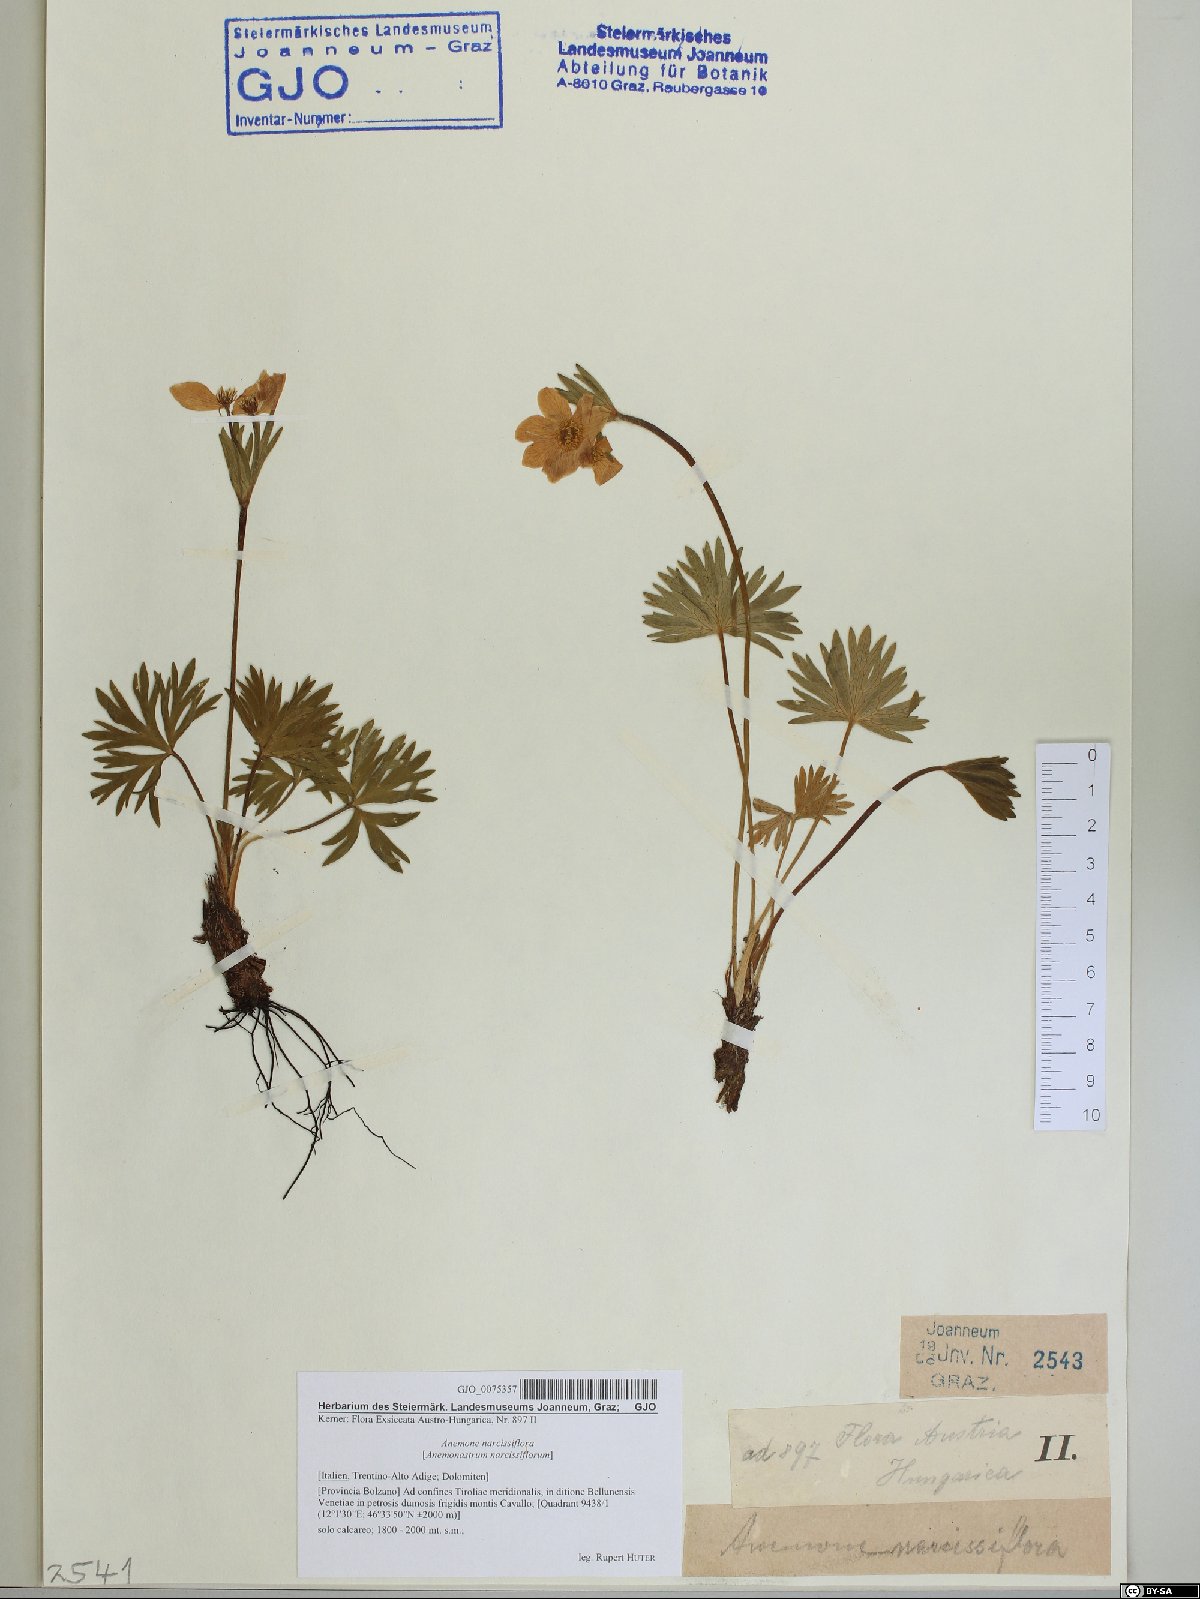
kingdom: Plantae
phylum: Tracheophyta
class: Magnoliopsida
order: Ranunculales
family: Ranunculaceae
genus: Anemonastrum
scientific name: Anemonastrum narcissiflorum
